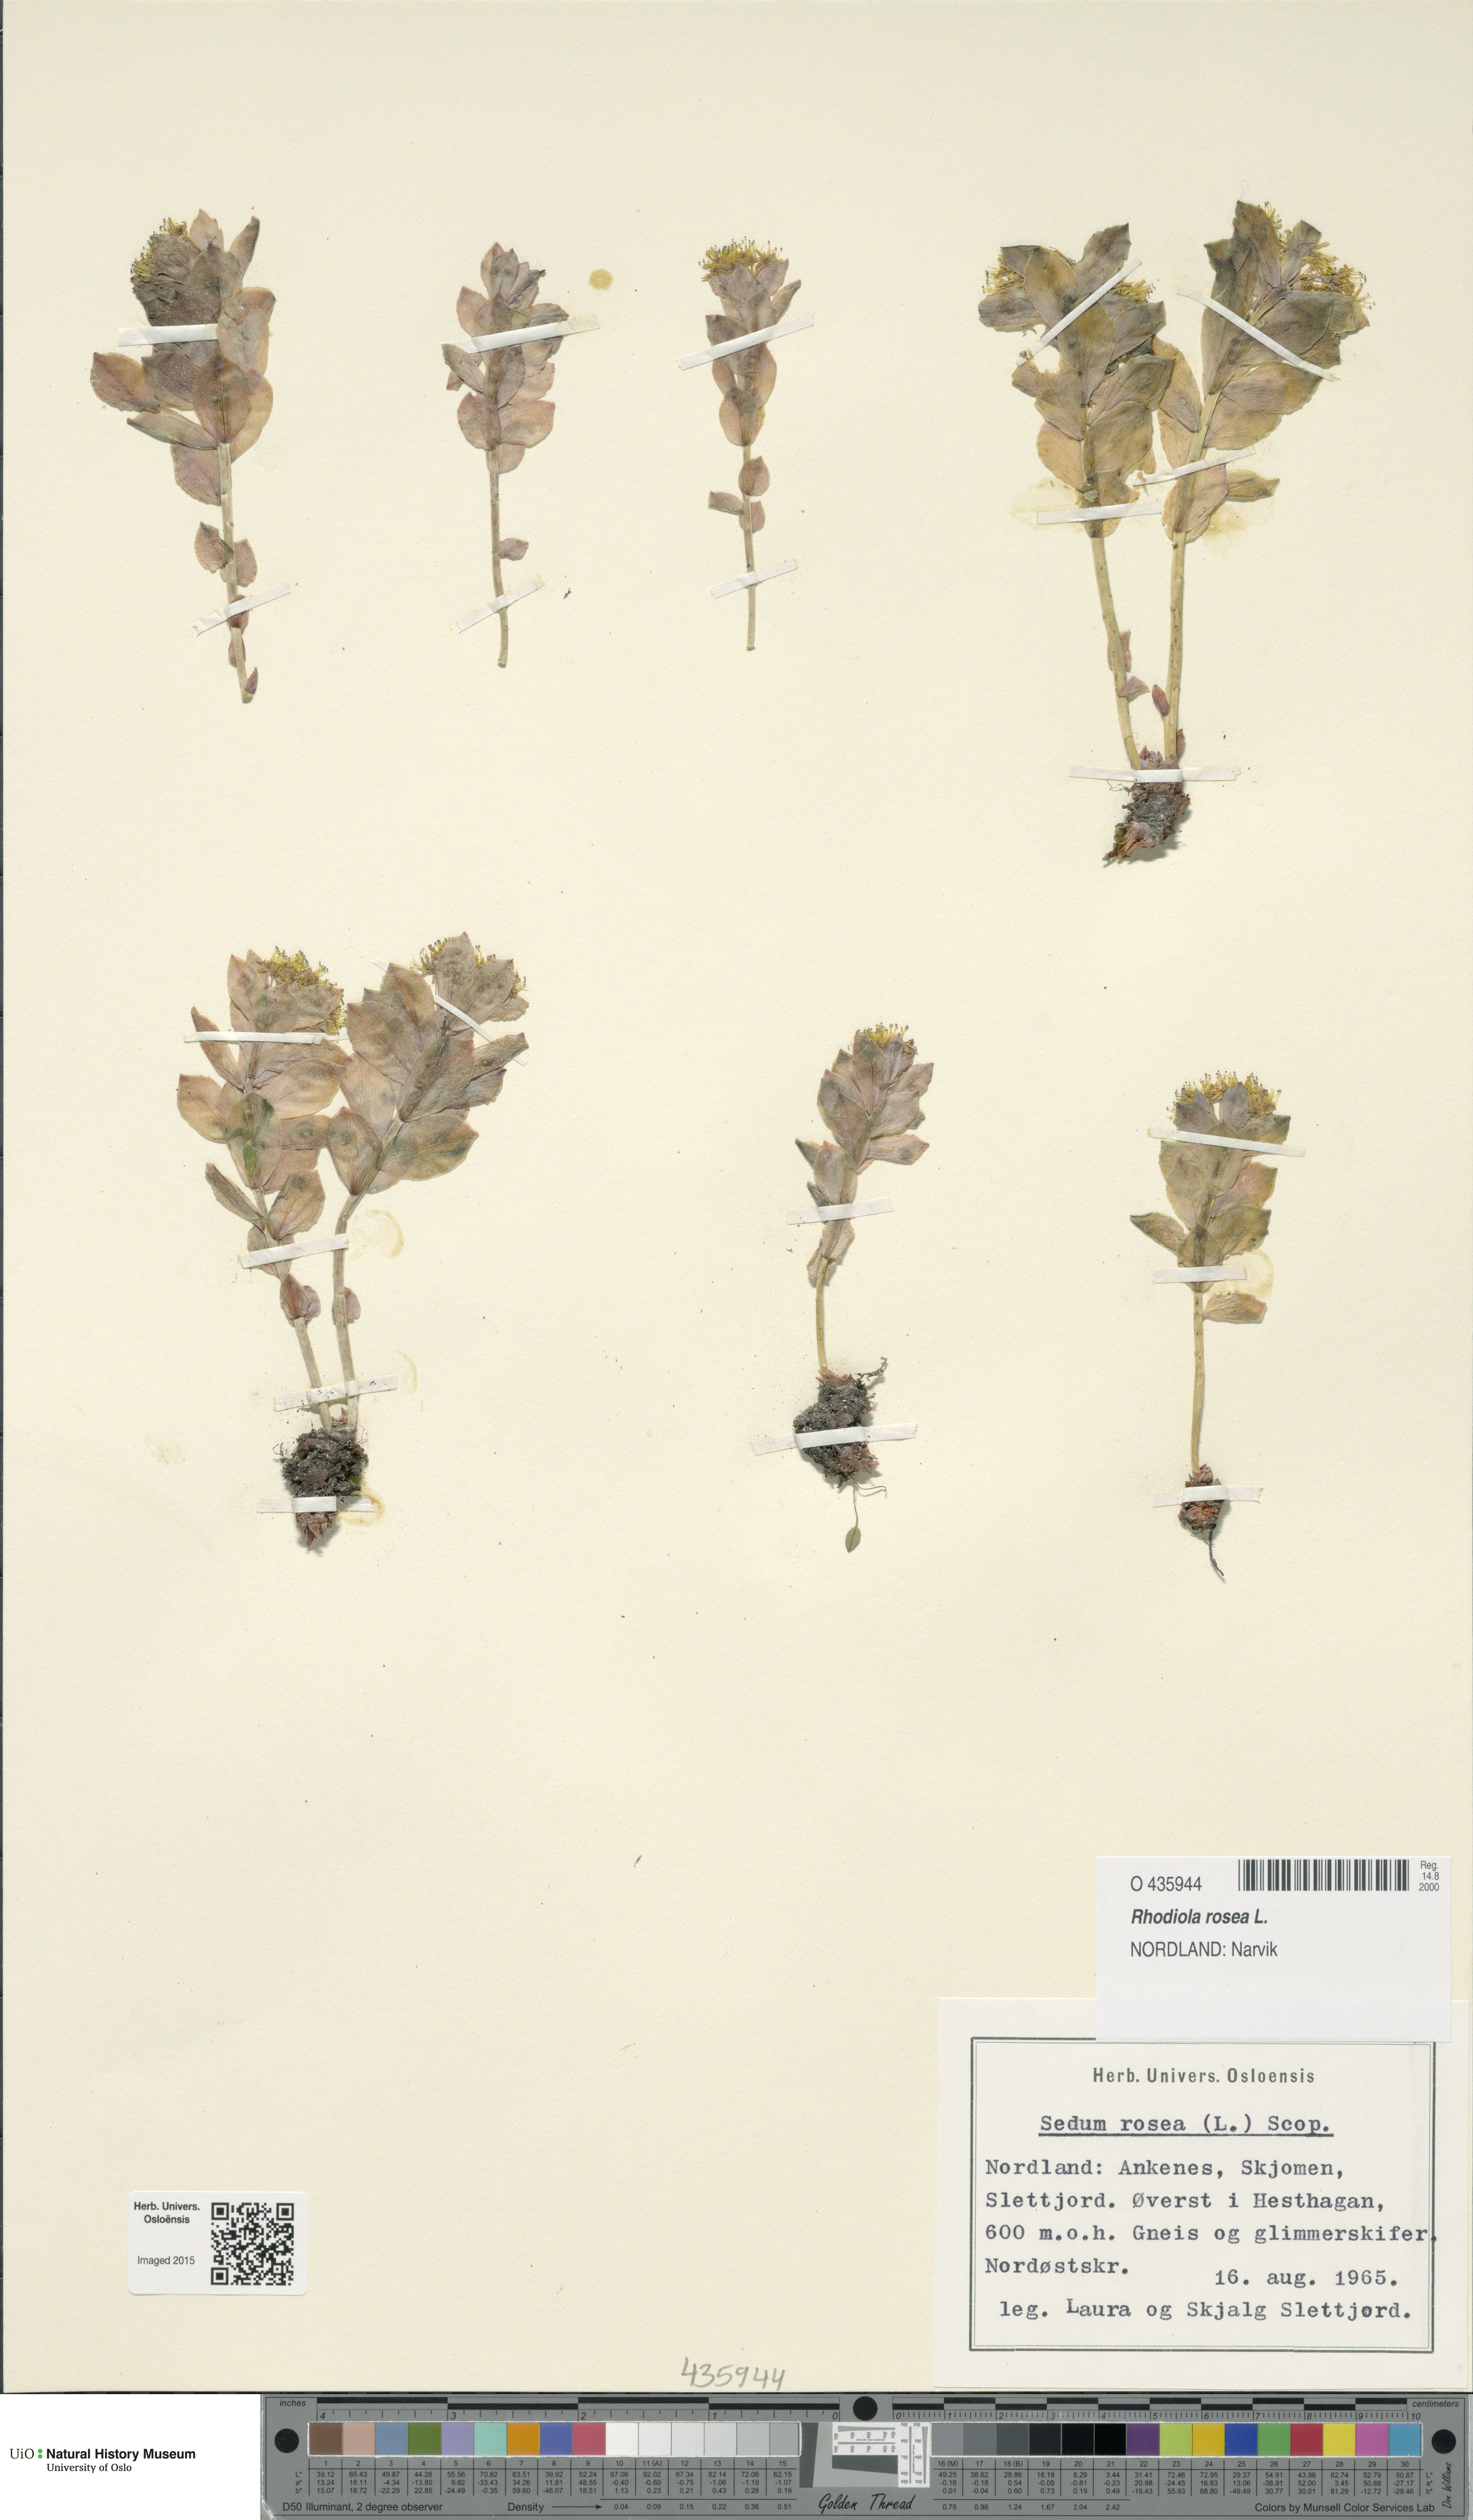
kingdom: Plantae
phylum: Tracheophyta
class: Magnoliopsida
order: Saxifragales
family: Crassulaceae
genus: Rhodiola
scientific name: Rhodiola rosea
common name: Roseroot
